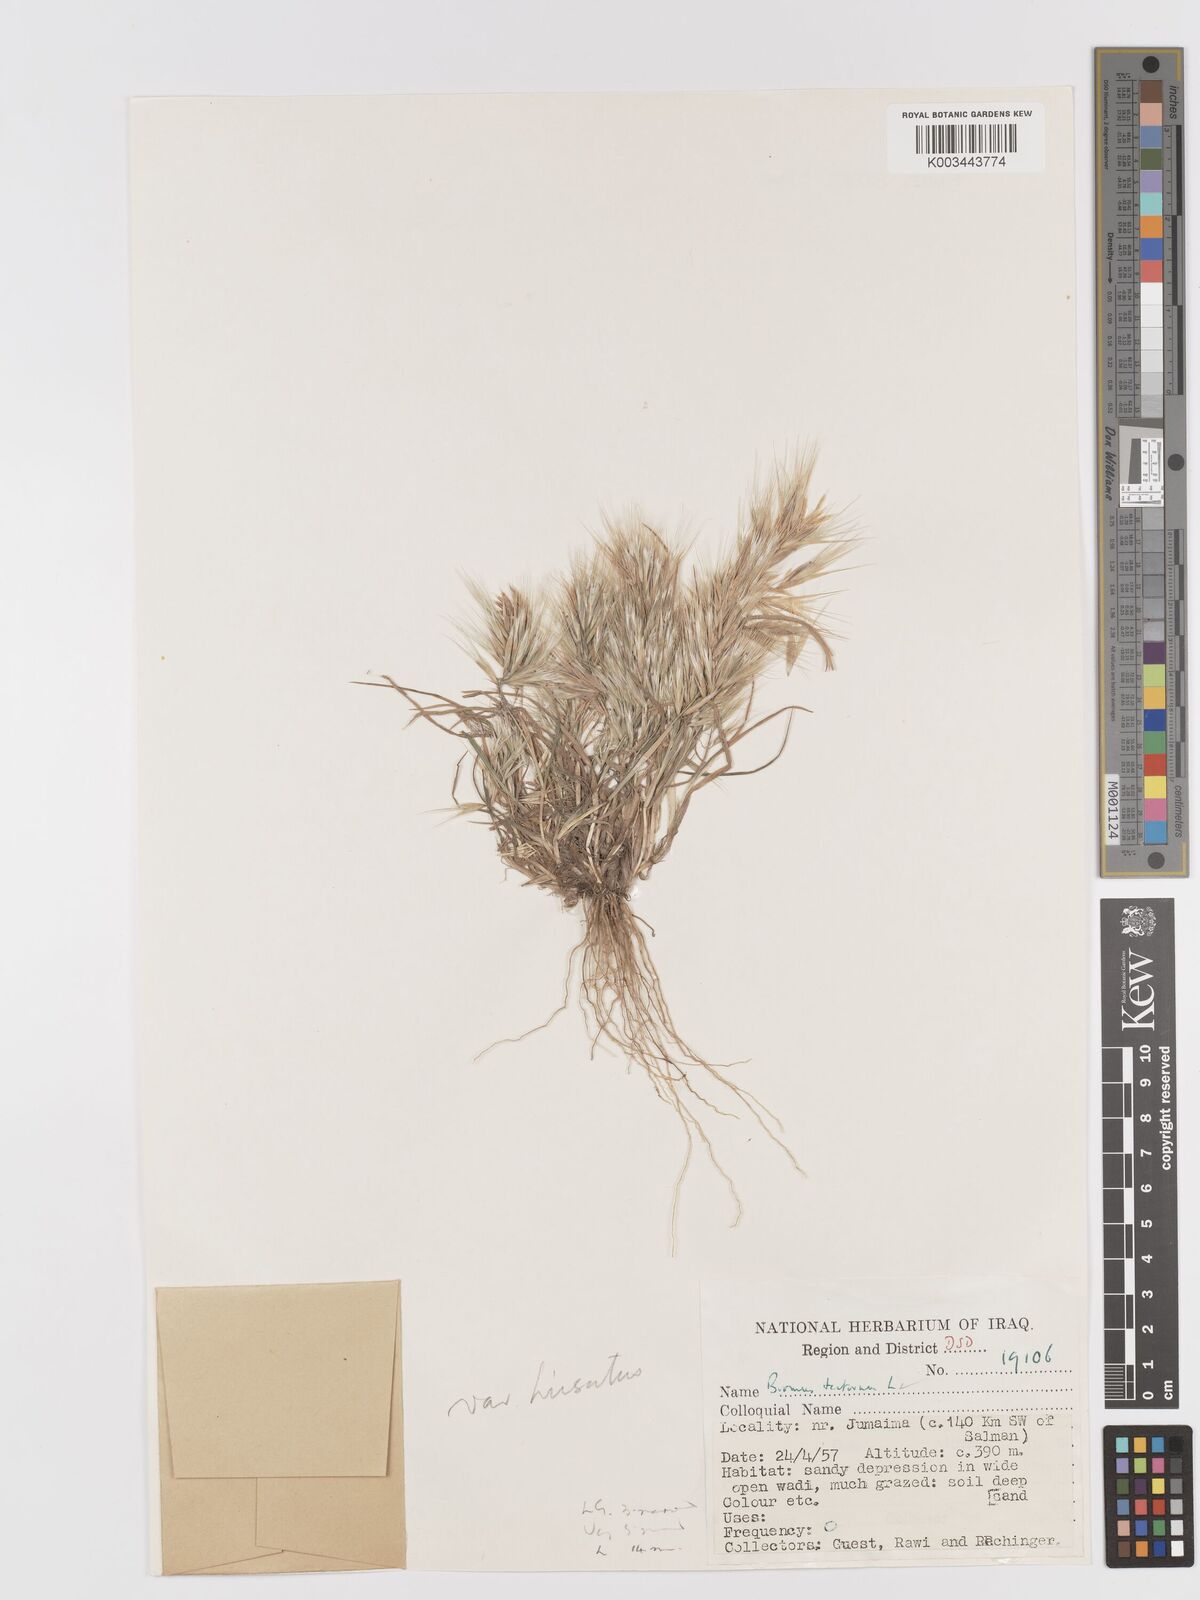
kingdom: Plantae
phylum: Tracheophyta
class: Liliopsida
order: Poales
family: Poaceae
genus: Bromus
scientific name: Bromus tectorum
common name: Cheatgrass
